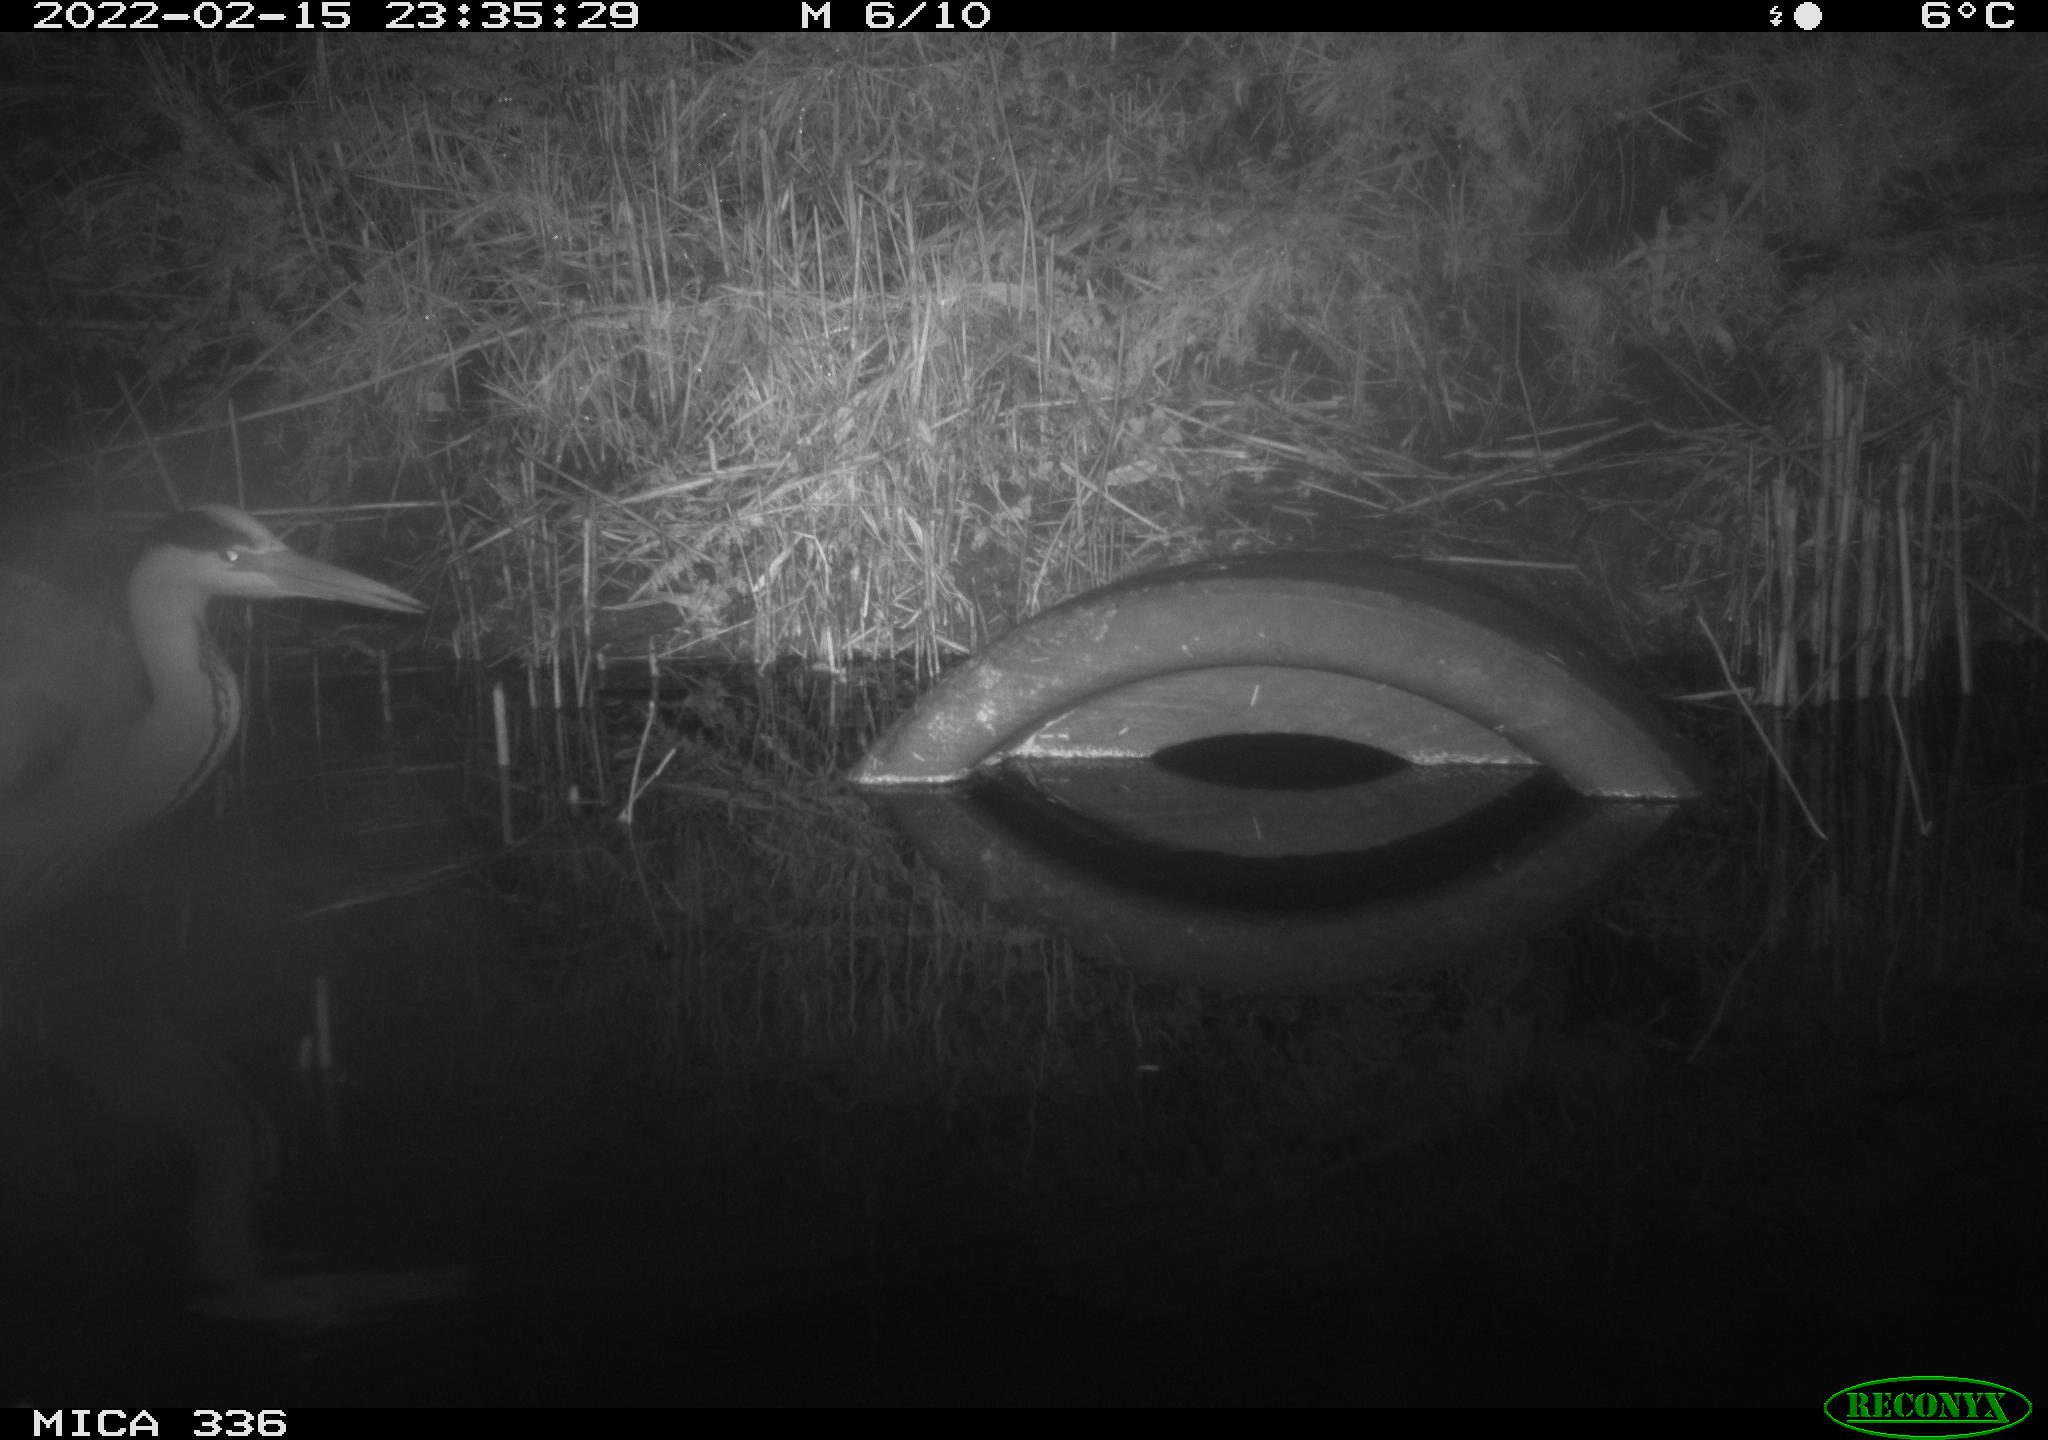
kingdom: Animalia
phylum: Chordata
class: Aves
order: Pelecaniformes
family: Ardeidae
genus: Ardea
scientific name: Ardea cinerea
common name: Grey heron
